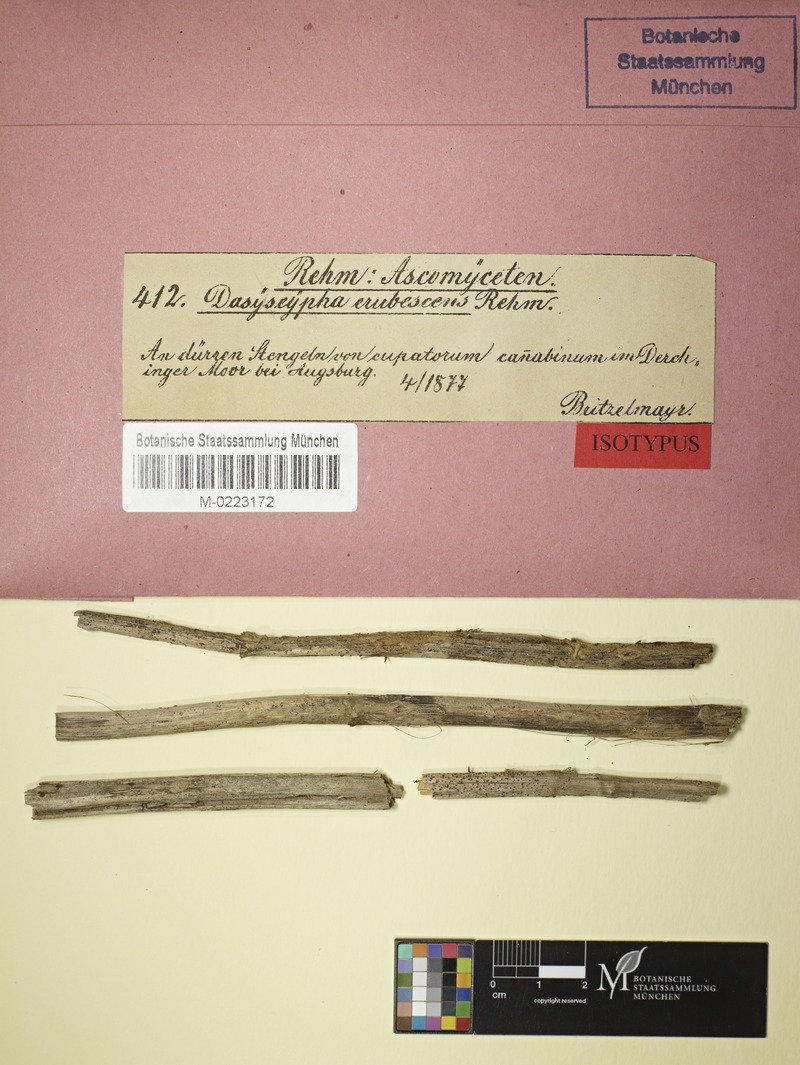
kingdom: Fungi
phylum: Ascomycota
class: Leotiomycetes
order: Helotiales
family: Ploettnerulaceae
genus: Pyrenopeziza
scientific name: Pyrenopeziza aureola
